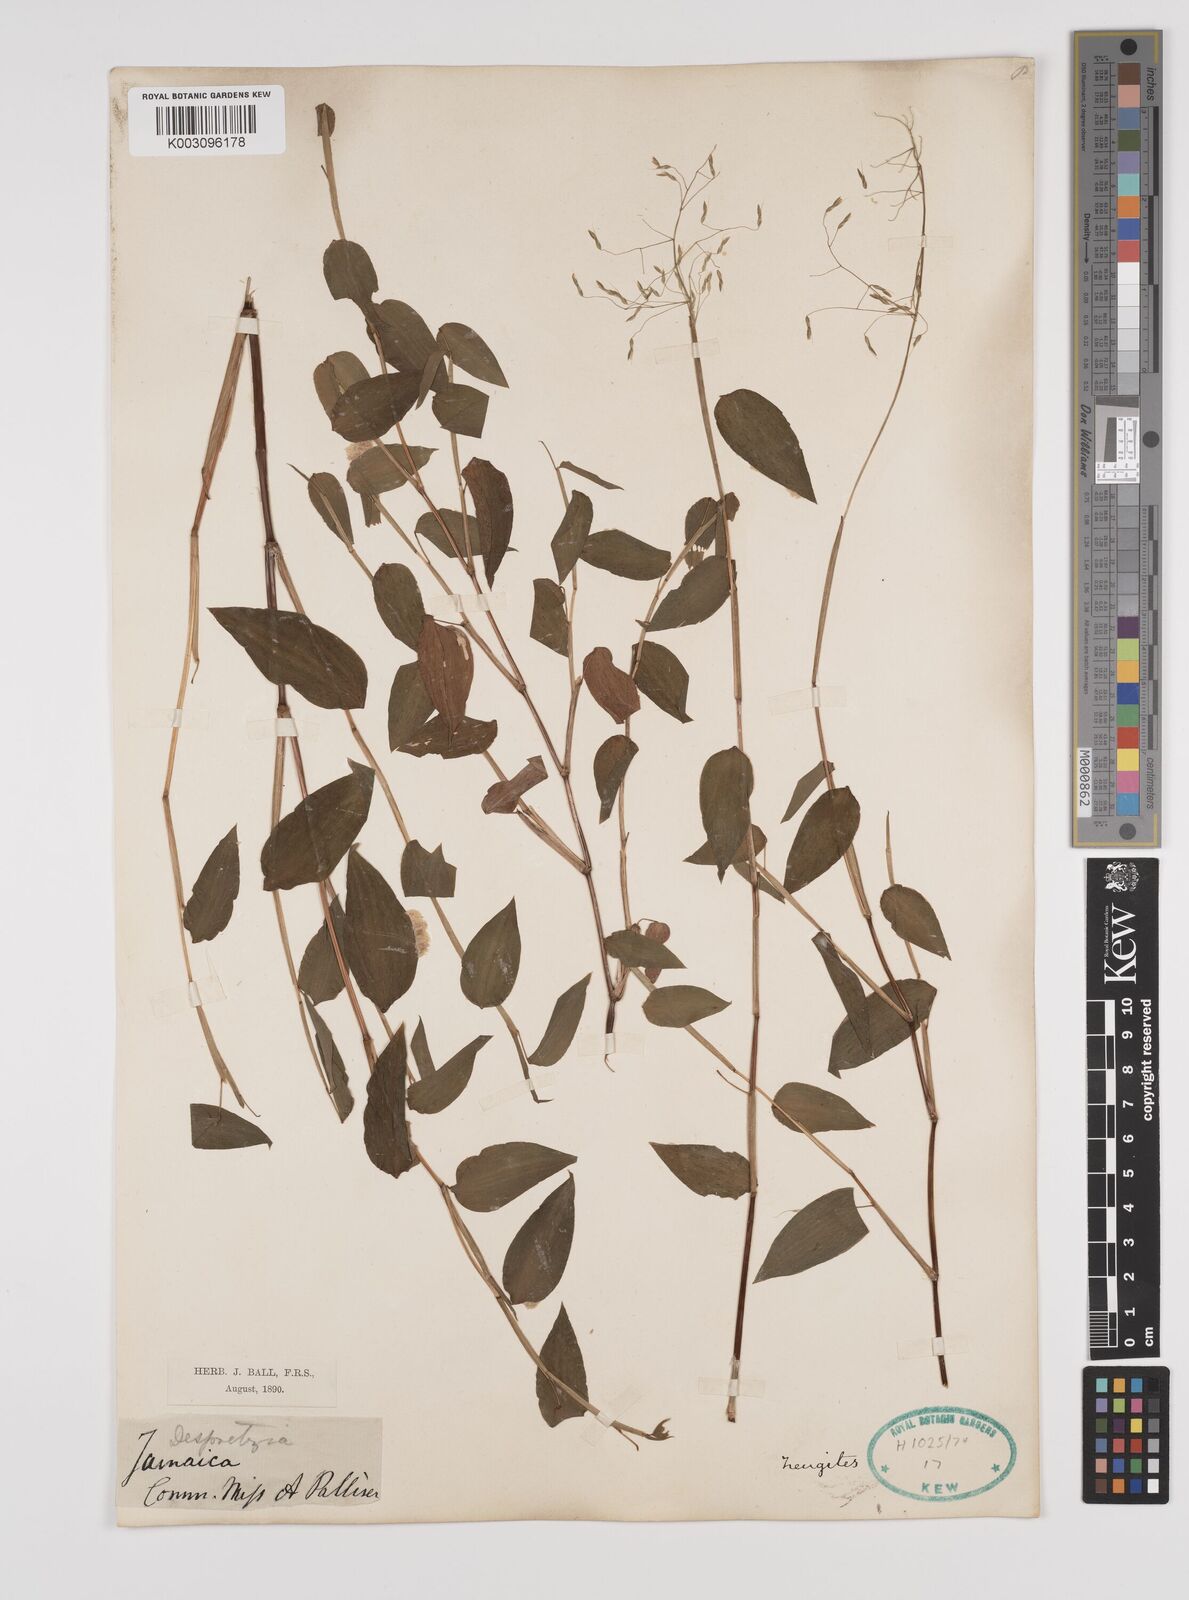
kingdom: Plantae
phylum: Tracheophyta
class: Liliopsida
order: Poales
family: Poaceae
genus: Zeugites
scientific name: Zeugites americanus
